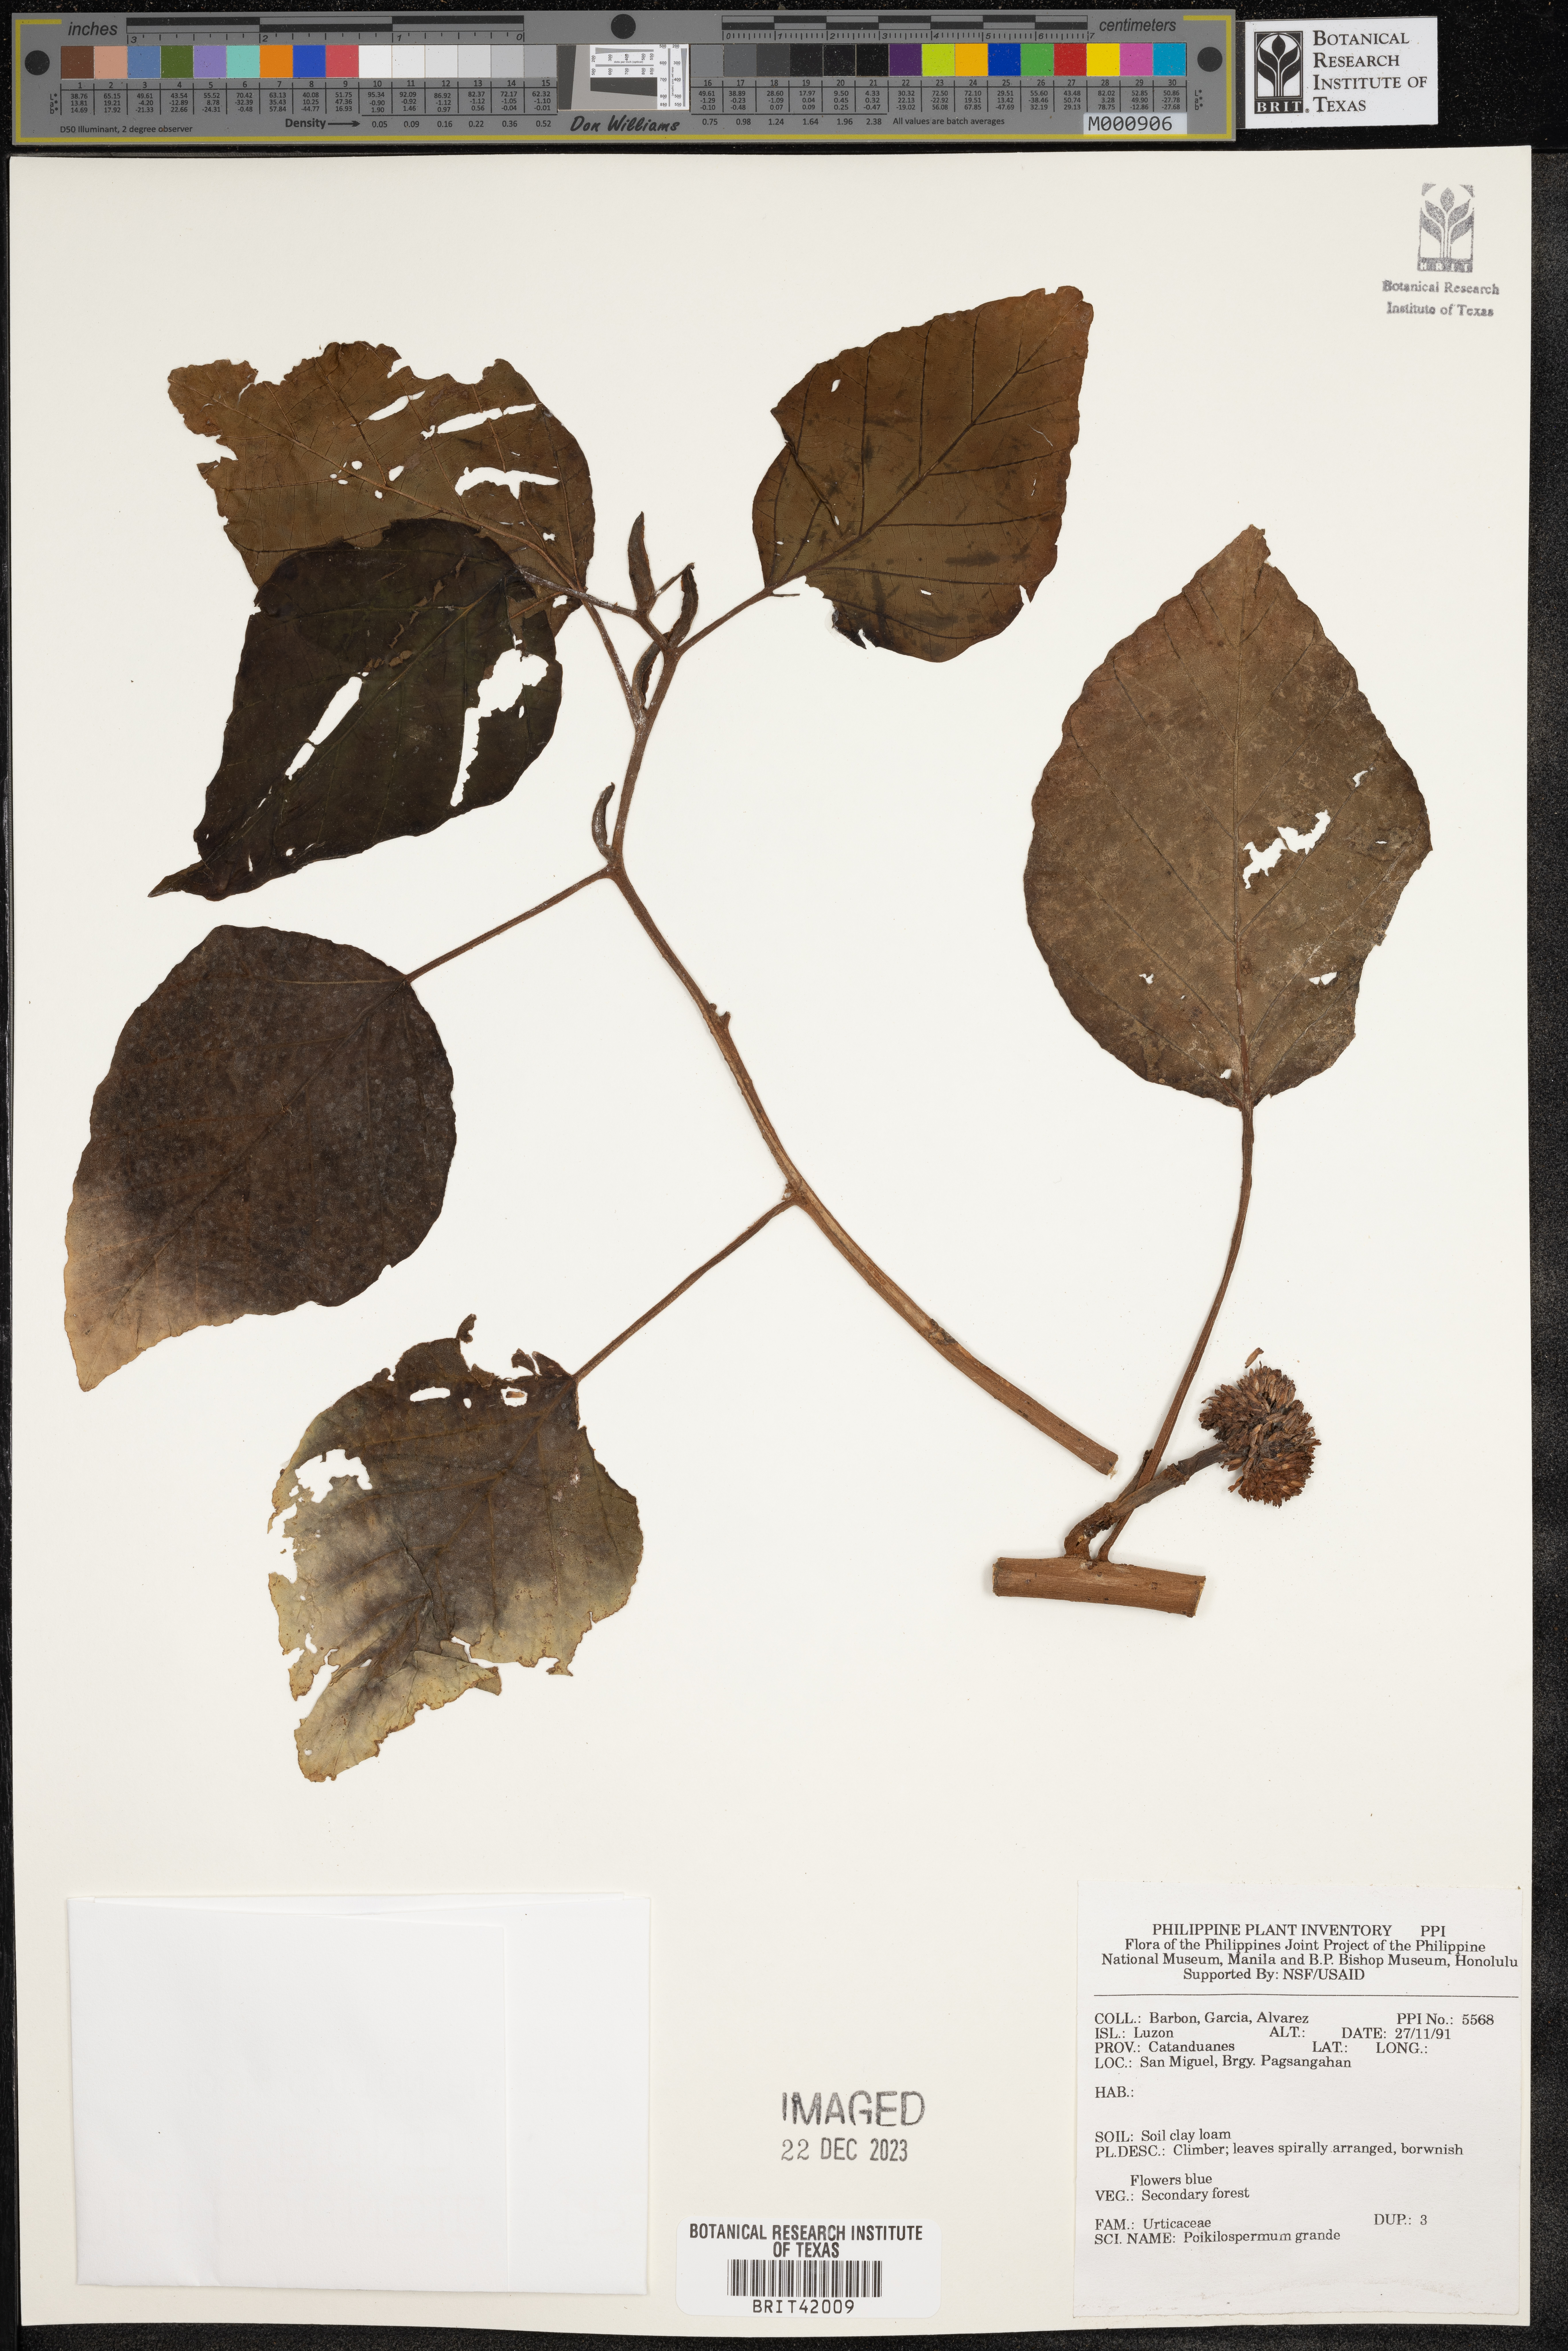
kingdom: Plantae
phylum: Tracheophyta
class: Magnoliopsida
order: Rosales
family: Urticaceae
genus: Poikilospermum
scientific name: Poikilospermum acuminatum
